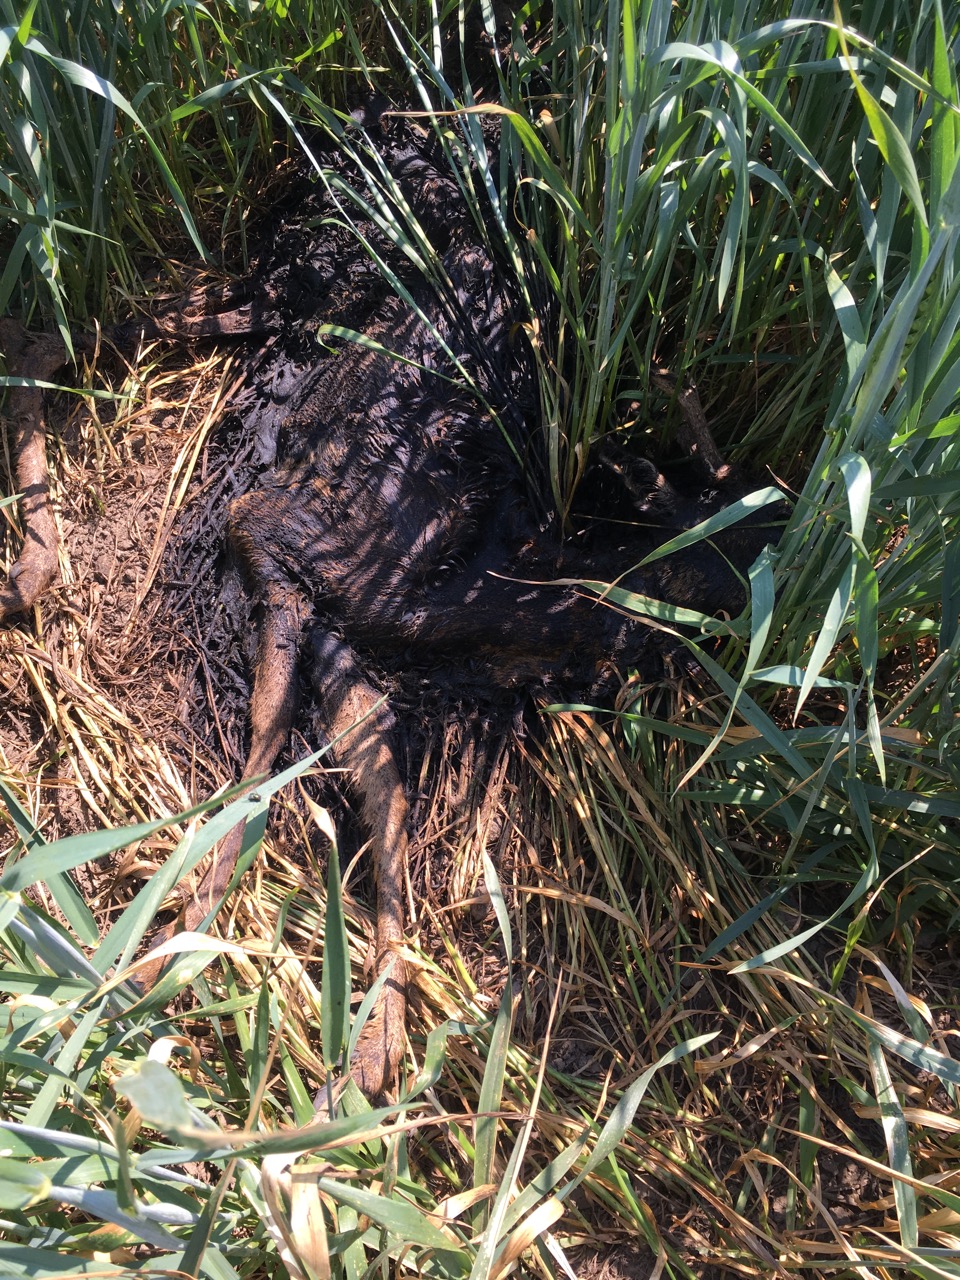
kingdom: Animalia
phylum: Chordata
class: Mammalia
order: Artiodactyla
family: Cervidae
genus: Capreolus
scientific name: Capreolus capreolus
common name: Western roe deer
